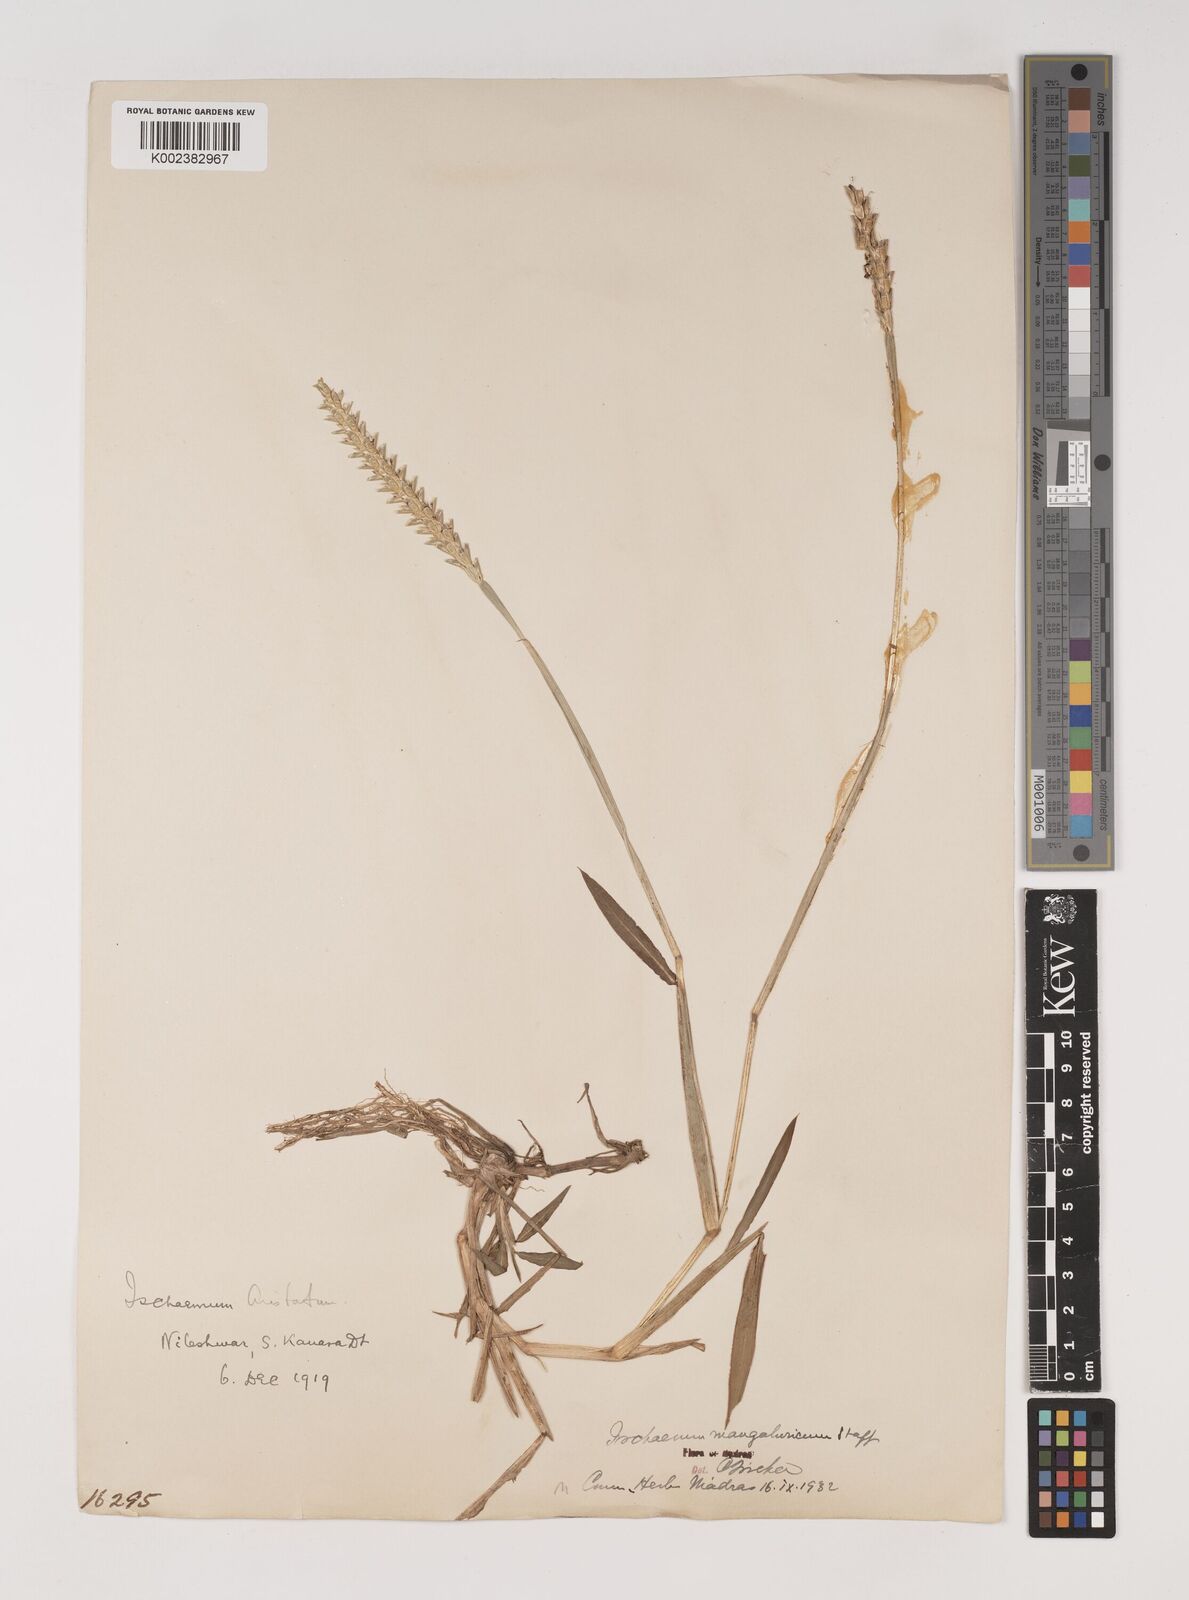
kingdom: Plantae
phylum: Tracheophyta
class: Liliopsida
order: Poales
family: Poaceae
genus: Ischaemum
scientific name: Ischaemum barbatum
